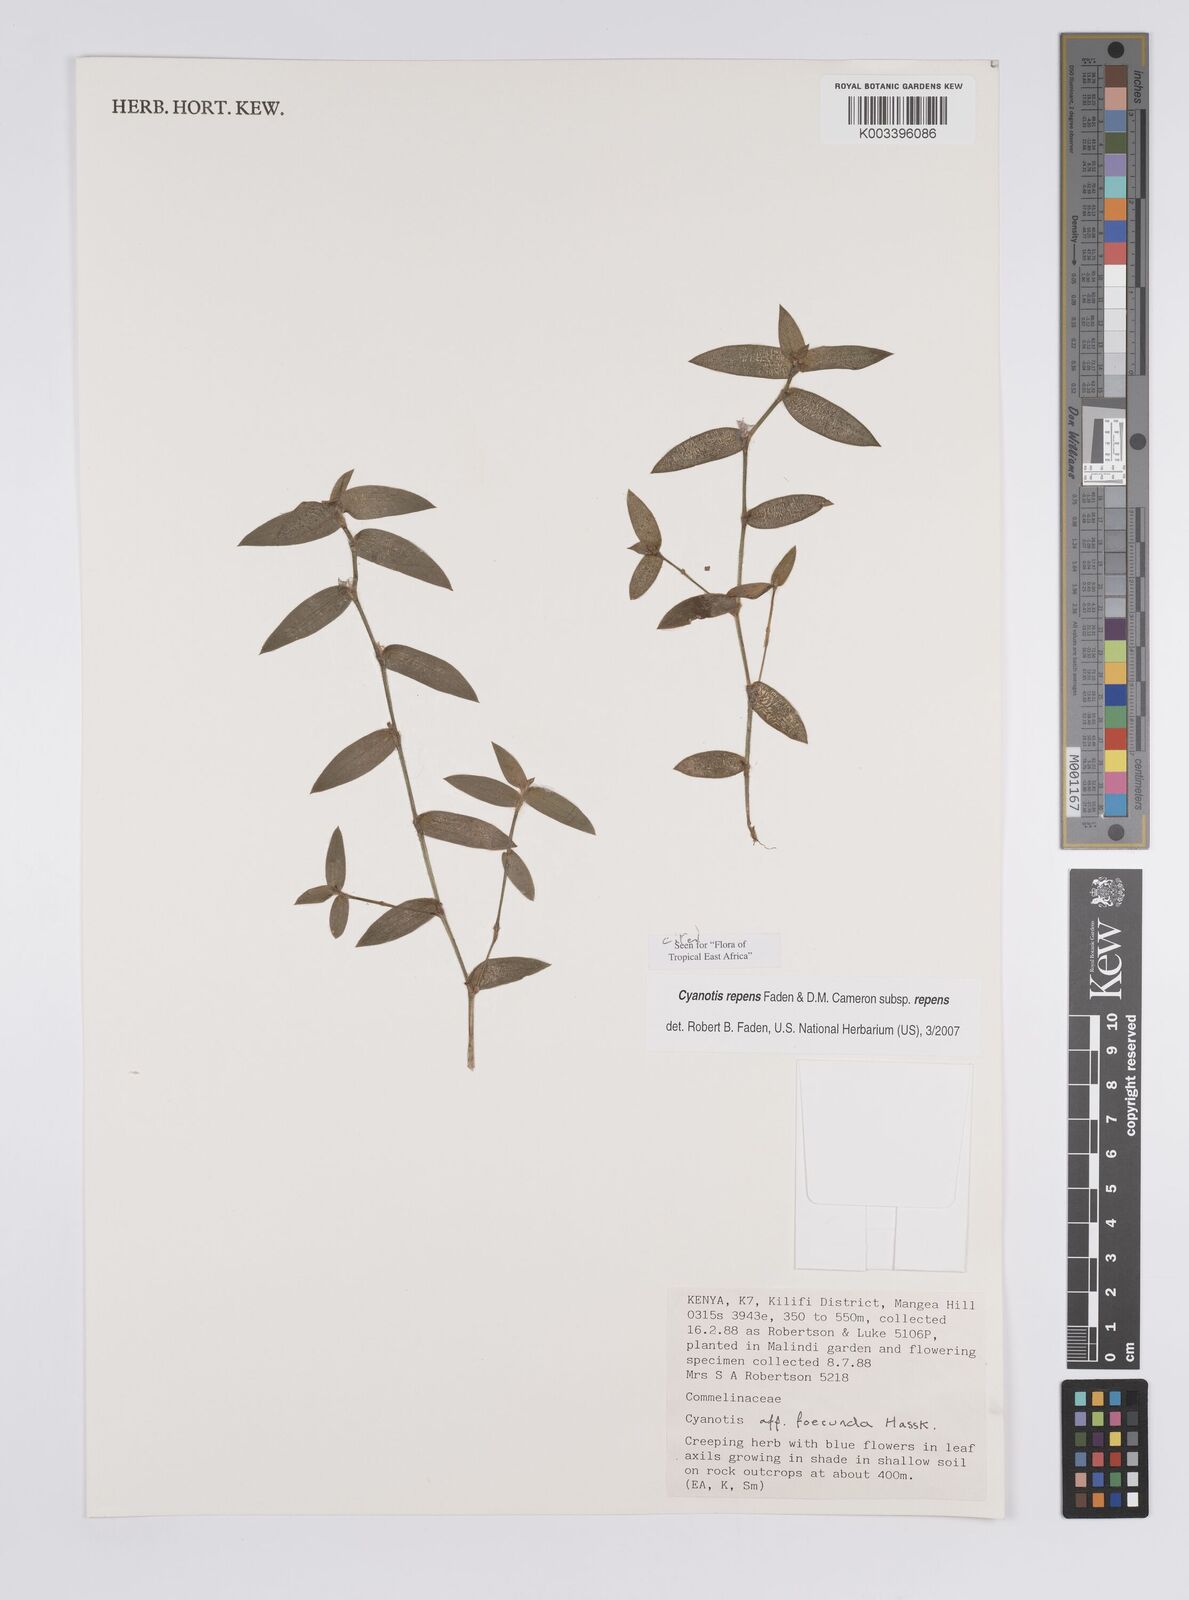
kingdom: Plantae
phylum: Tracheophyta
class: Liliopsida
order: Commelinales
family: Commelinaceae
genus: Cyanotis
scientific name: Cyanotis repens
